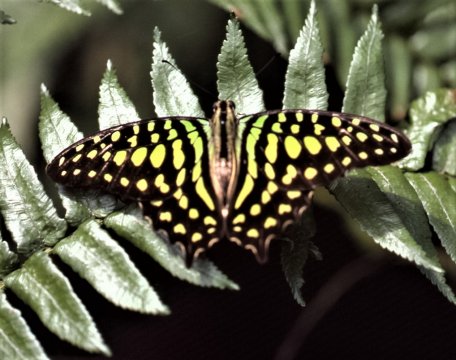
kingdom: Animalia
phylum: Arthropoda
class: Insecta
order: Lepidoptera
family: Papilionidae
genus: Graphium
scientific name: Graphium agamemnon
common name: Tailed Jay
